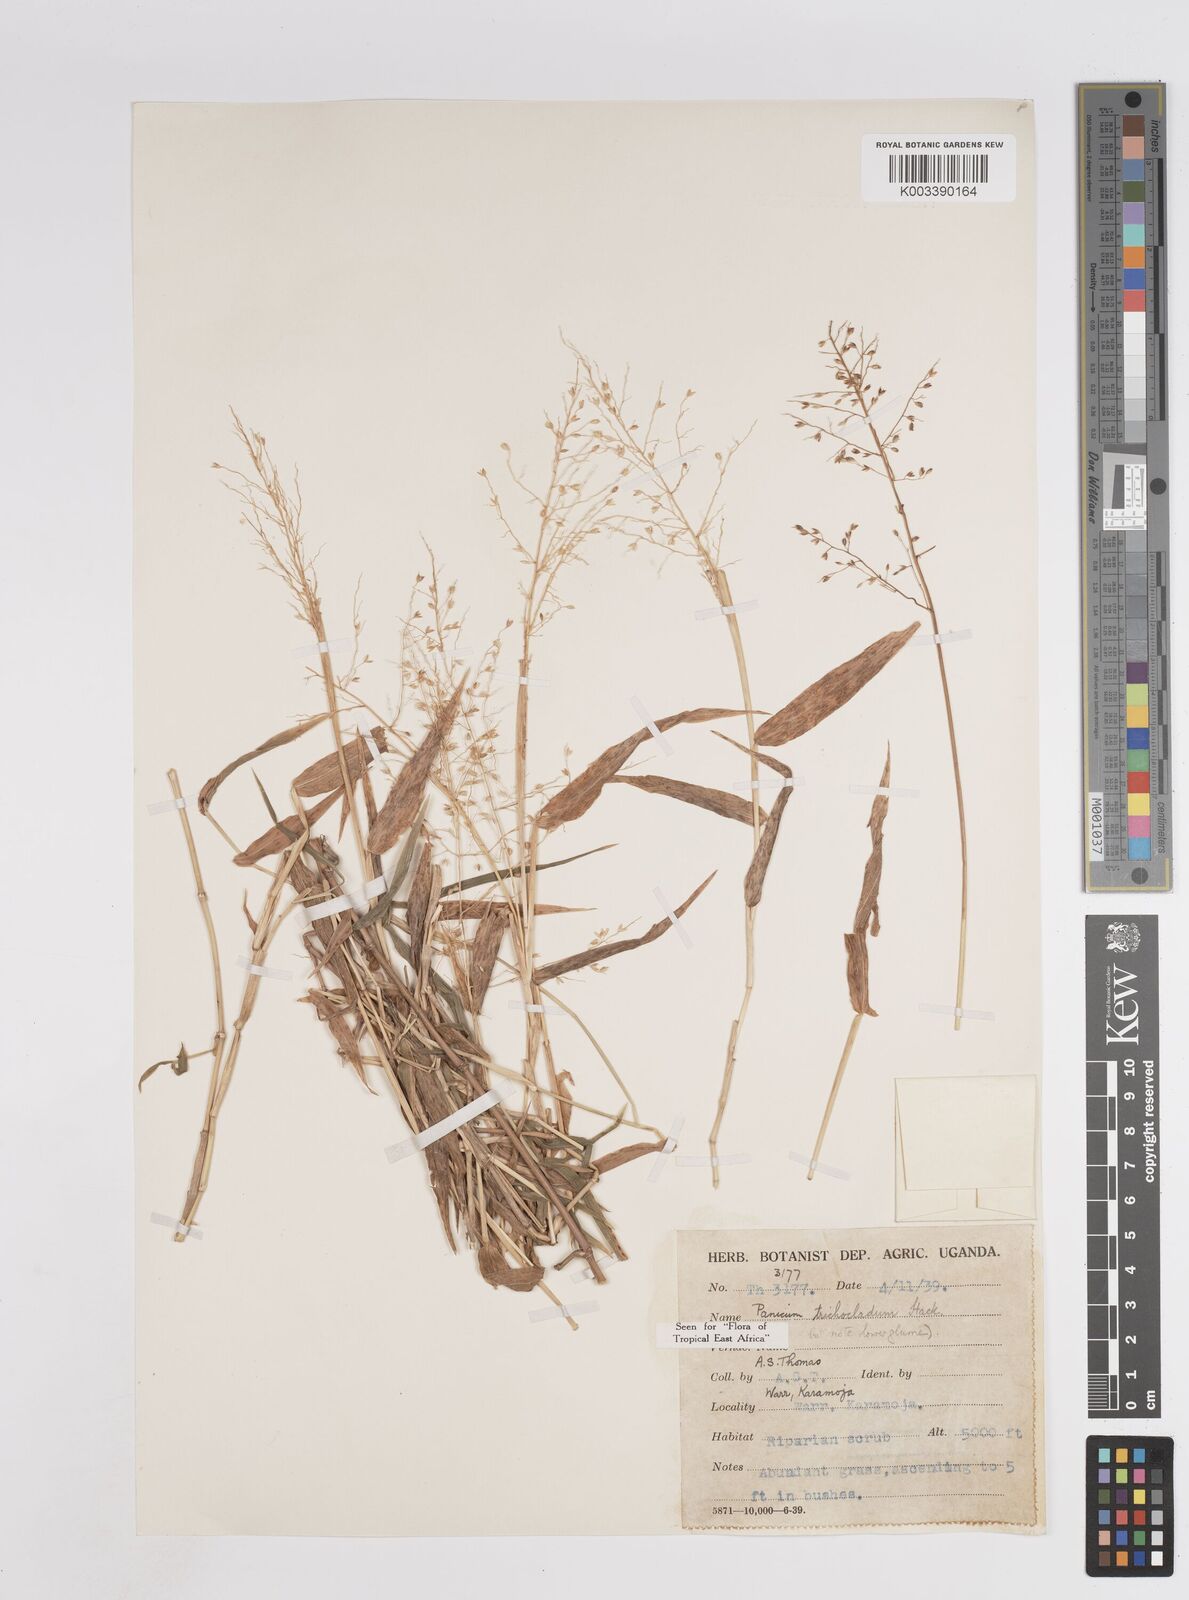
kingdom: Plantae
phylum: Tracheophyta
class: Liliopsida
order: Poales
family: Poaceae
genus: Panicum
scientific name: Panicum trichocladum
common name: Donkey grass
